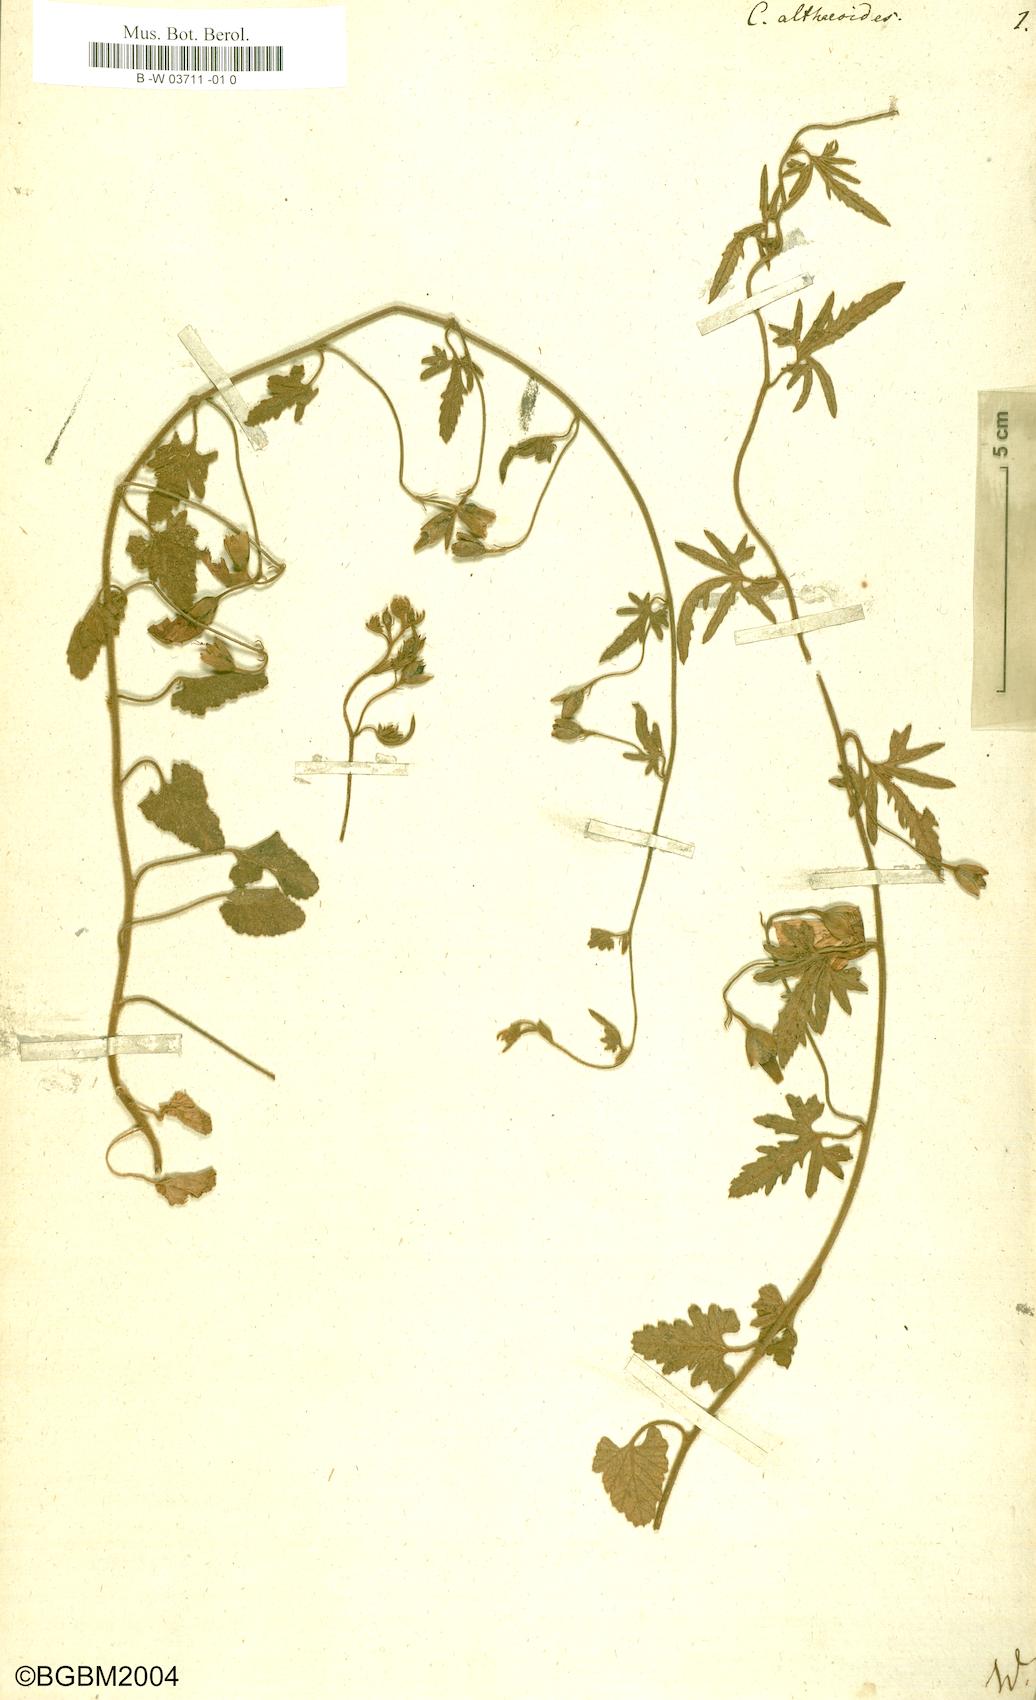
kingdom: Plantae
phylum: Tracheophyta
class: Magnoliopsida
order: Solanales
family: Convolvulaceae
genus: Convolvulus
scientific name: Convolvulus althaeoides
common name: Mallow bindweed
